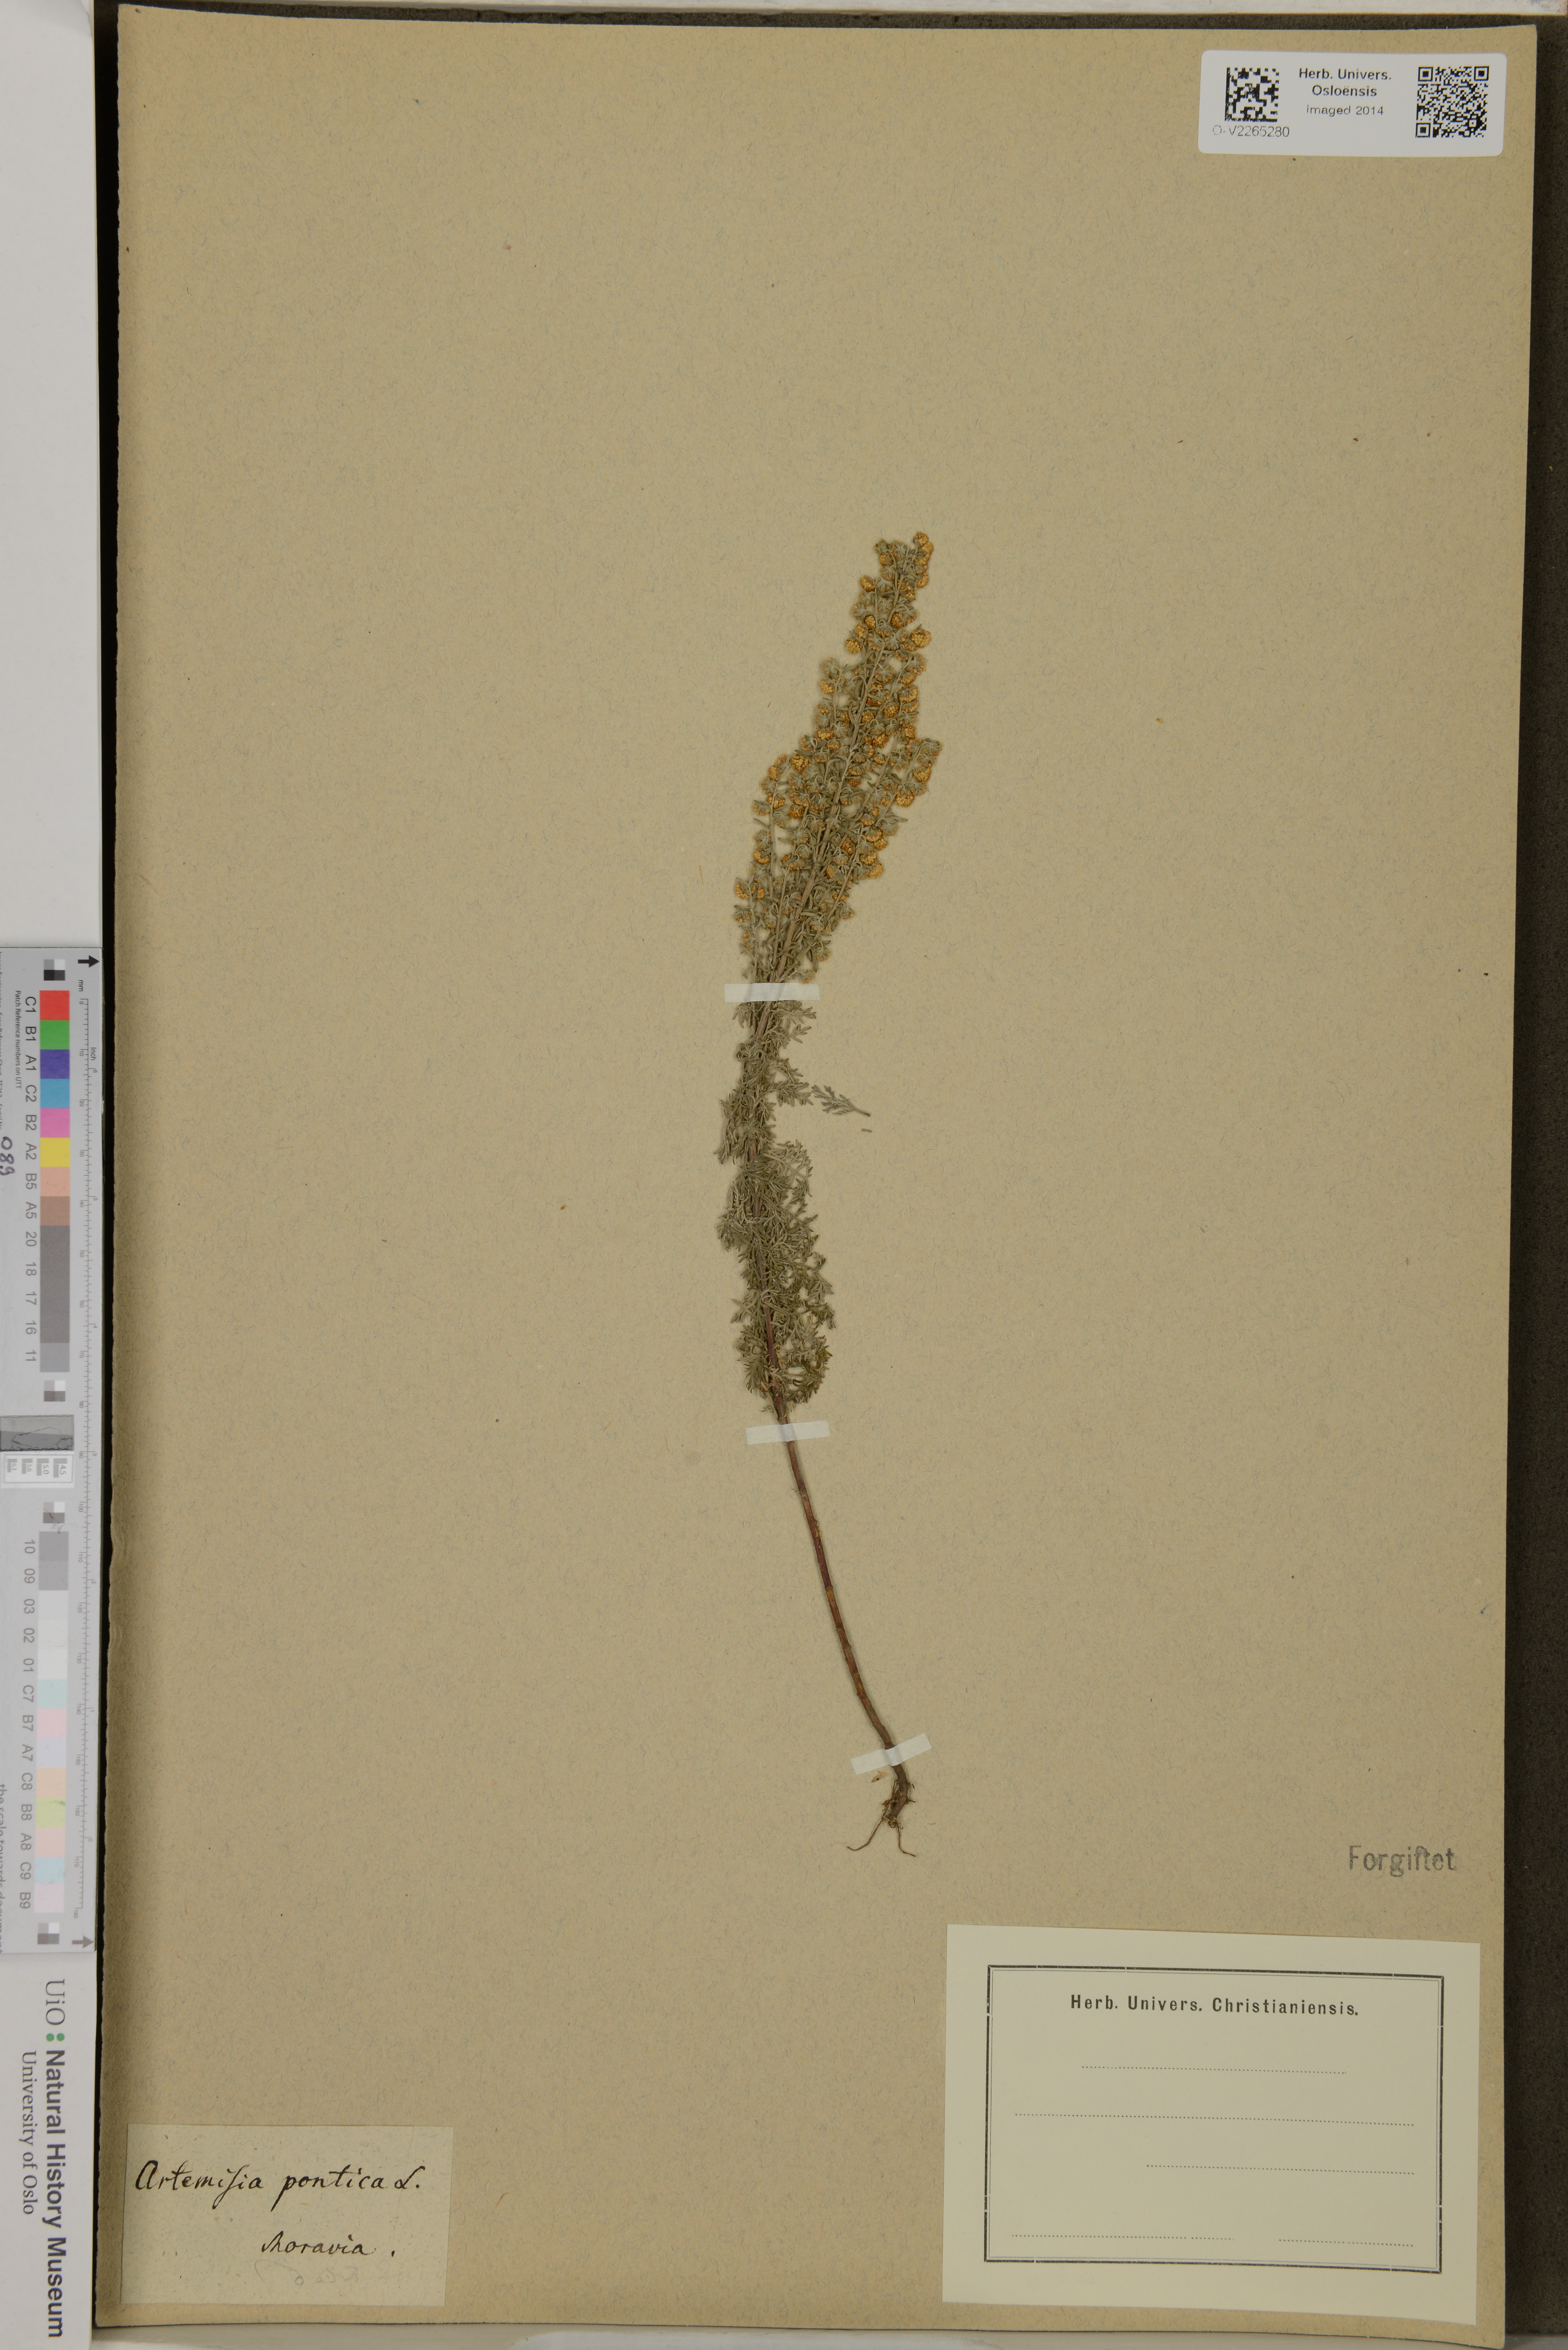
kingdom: Plantae
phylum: Tracheophyta
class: Magnoliopsida
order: Asterales
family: Asteraceae
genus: Artemisia
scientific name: Artemisia pontica
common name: Roman wormwood
